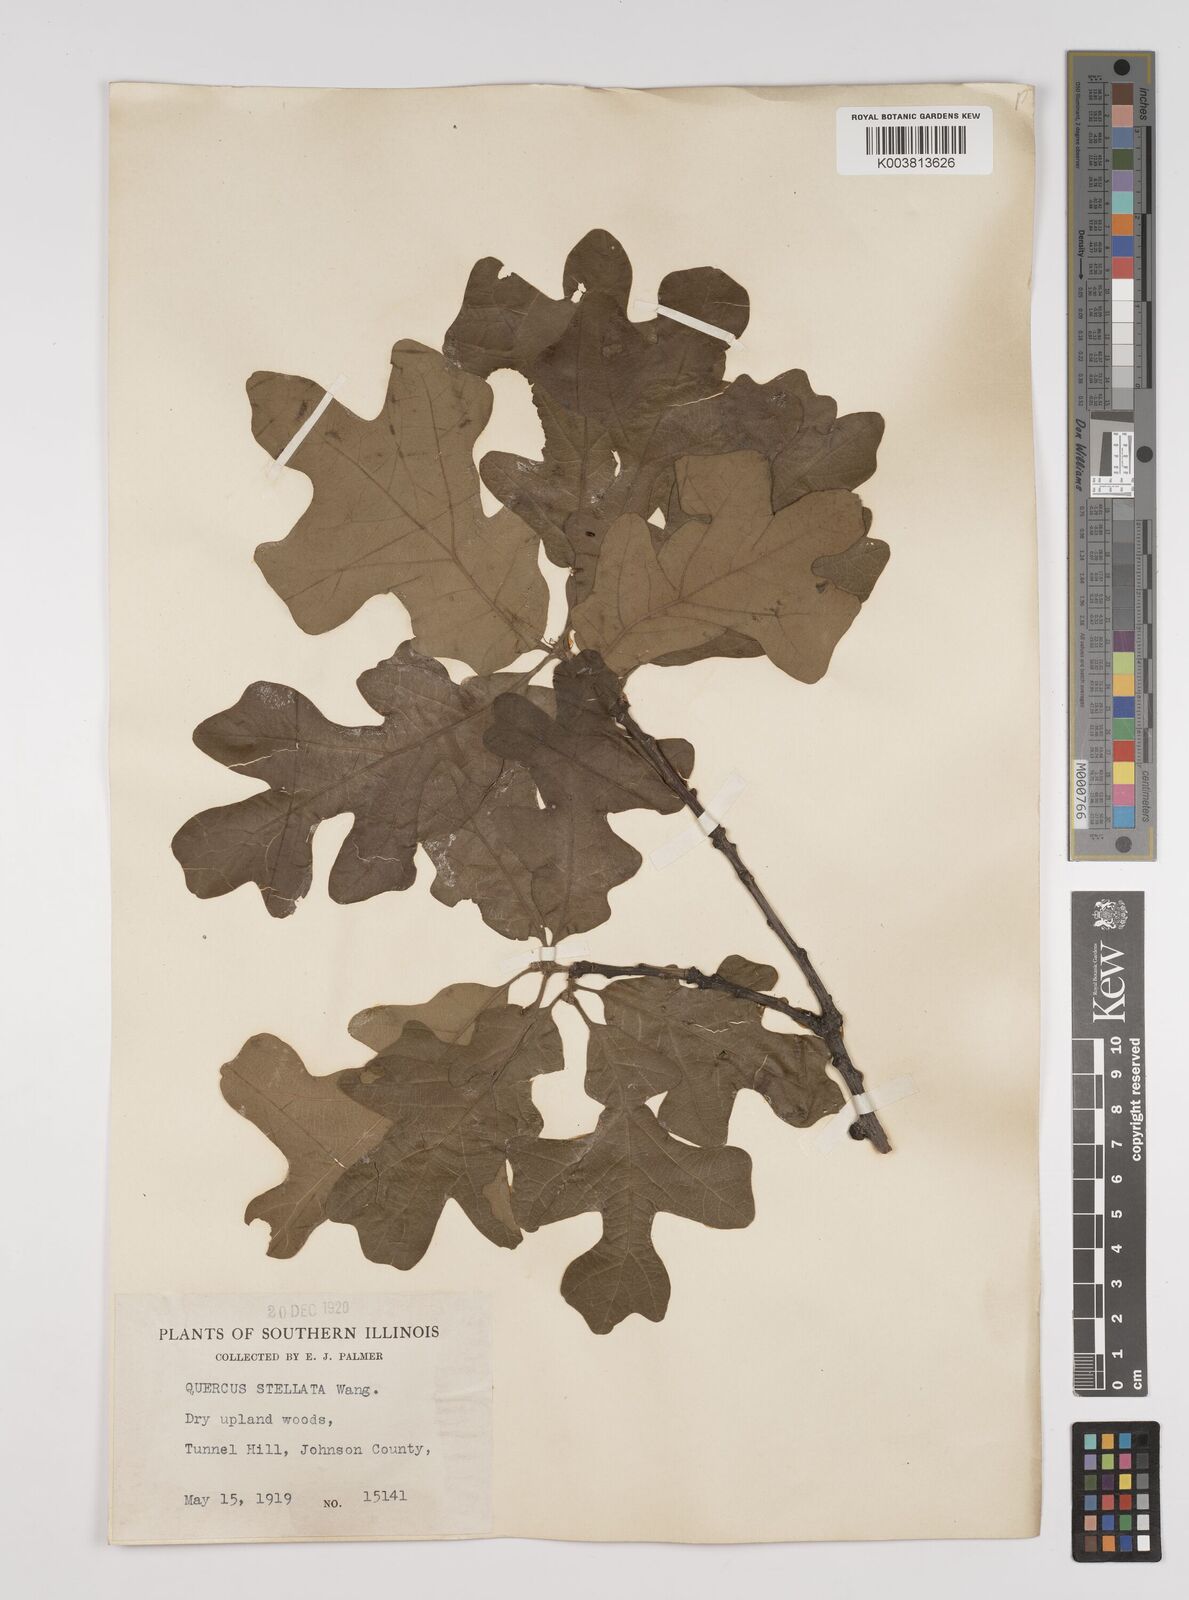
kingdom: Plantae
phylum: Tracheophyta
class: Magnoliopsida
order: Fagales
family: Fagaceae
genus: Quercus
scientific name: Quercus stellata
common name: Post oak
